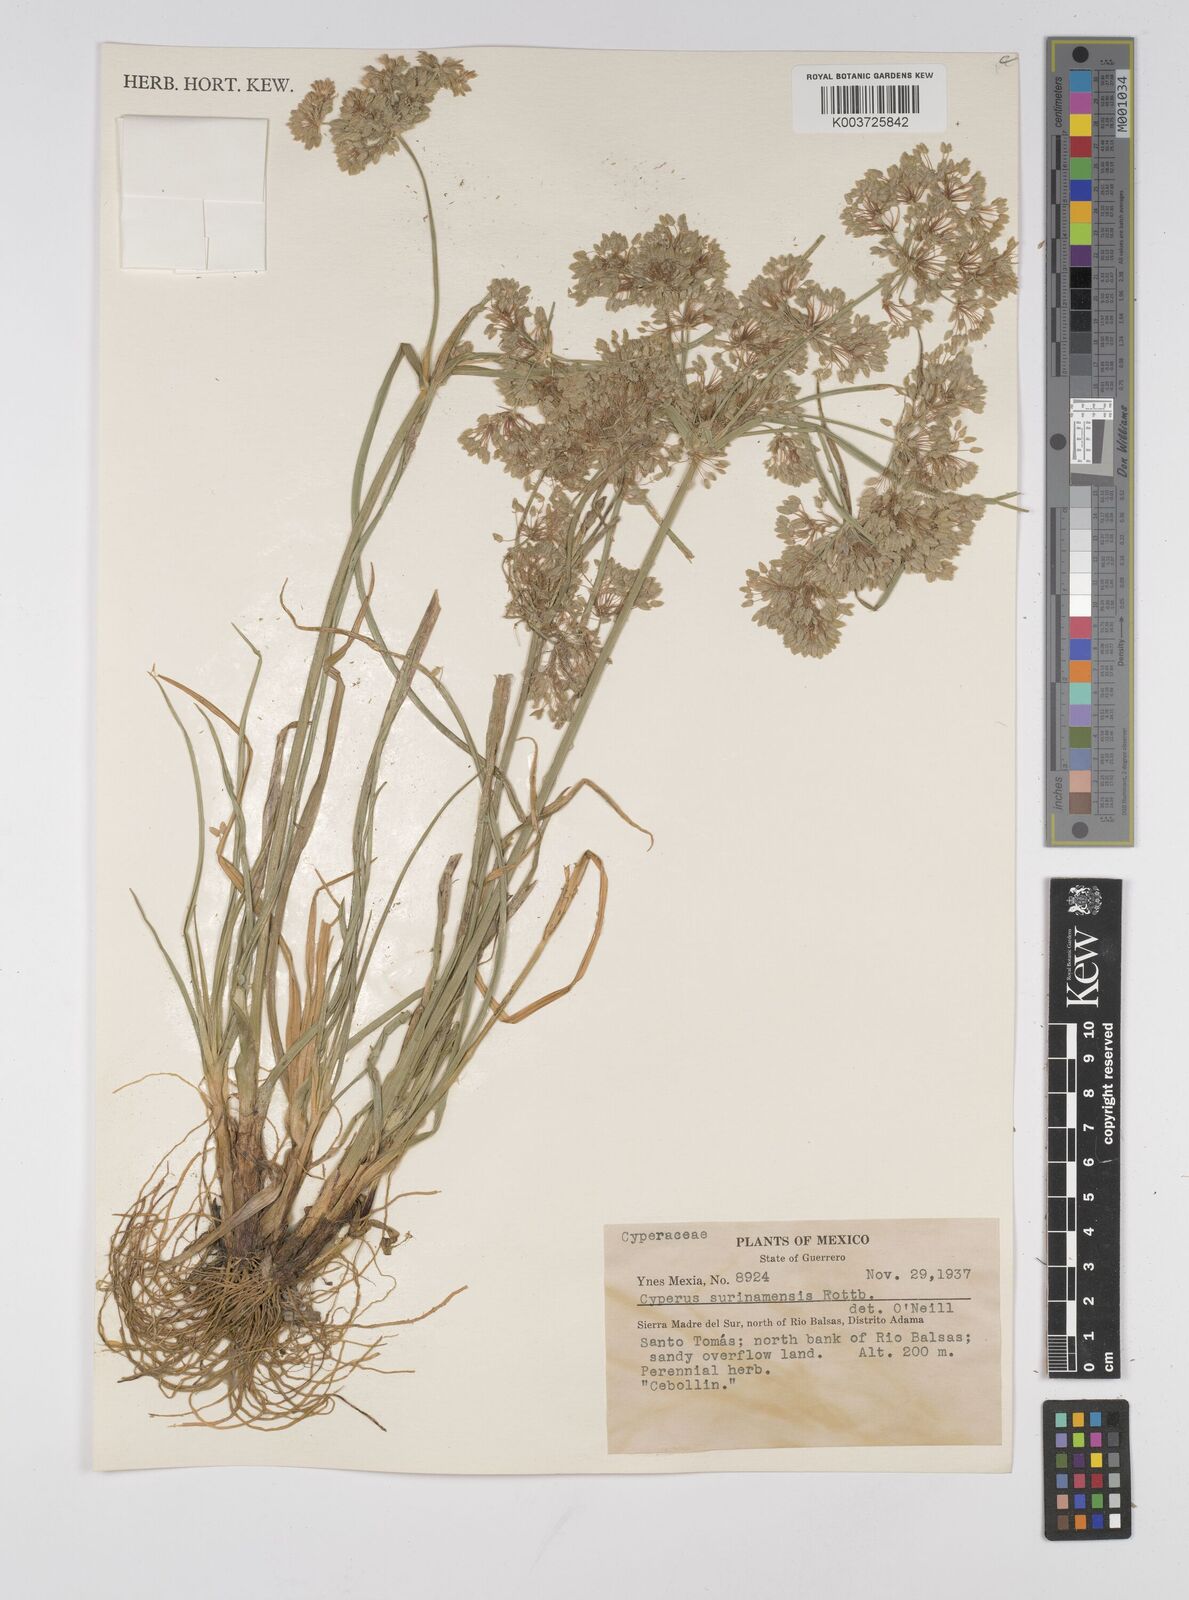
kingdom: Plantae
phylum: Tracheophyta
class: Liliopsida
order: Poales
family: Cyperaceae
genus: Cyperus
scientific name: Cyperus surinamensis
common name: Tropical flat sedge
